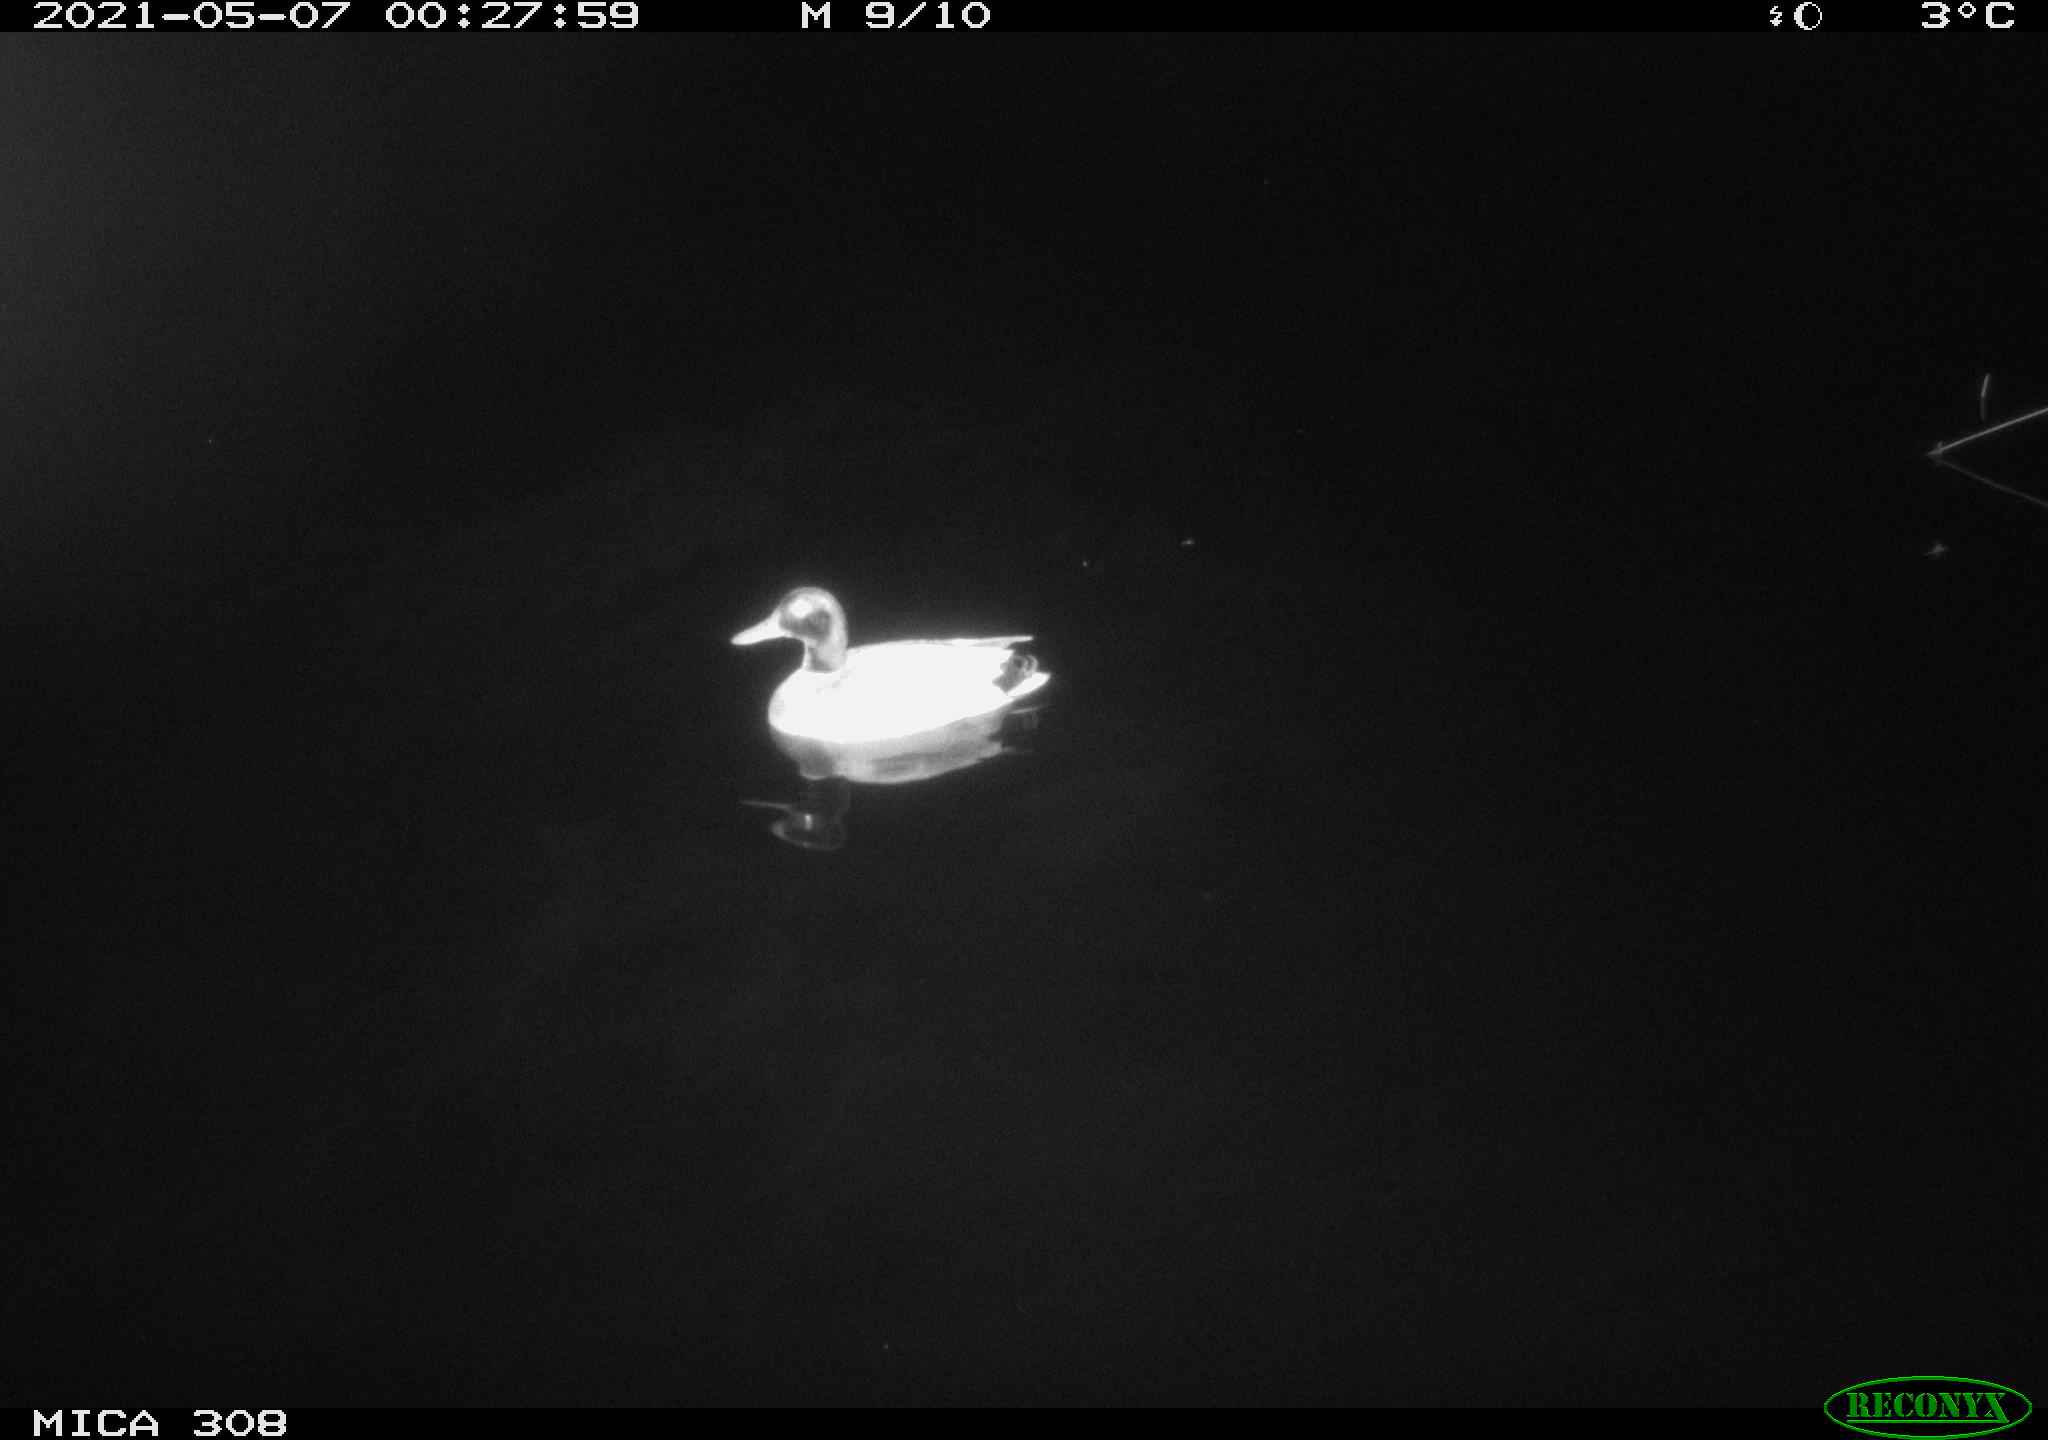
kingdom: Animalia
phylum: Chordata
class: Aves
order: Anseriformes
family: Anatidae
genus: Anas
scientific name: Anas platyrhynchos
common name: Mallard
